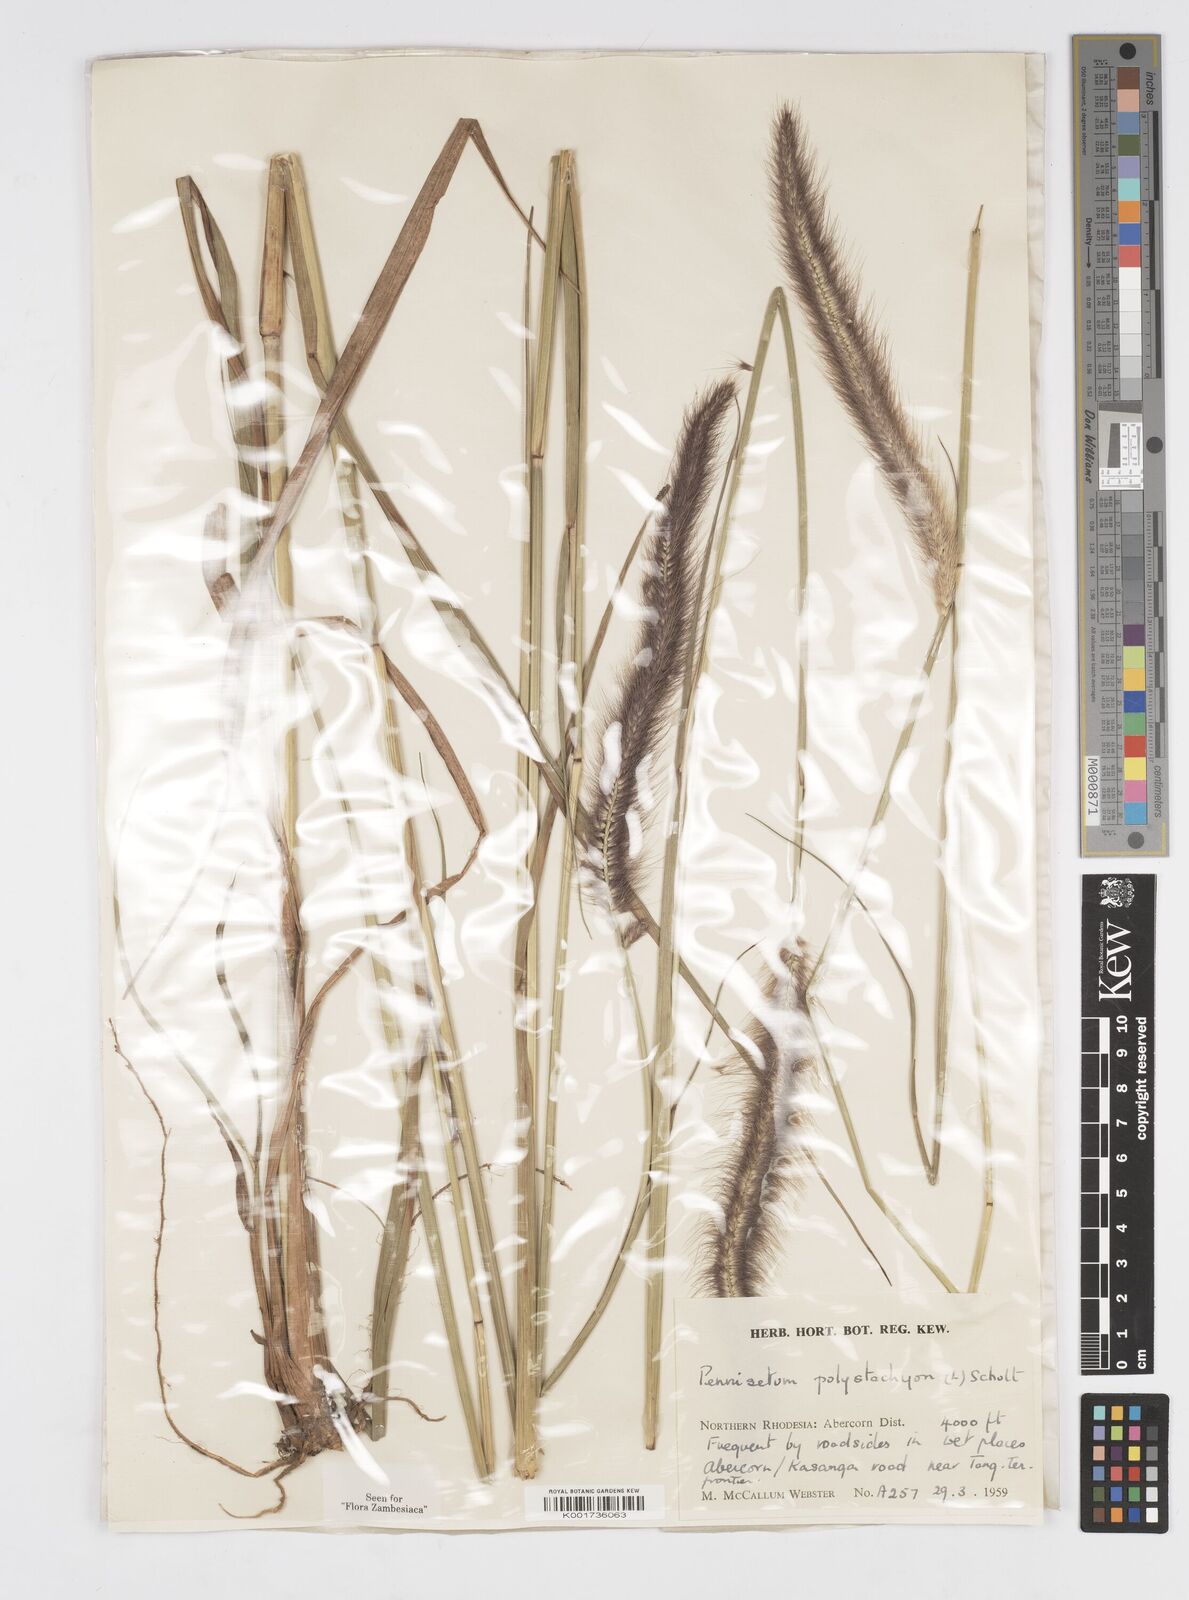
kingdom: Plantae
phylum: Tracheophyta
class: Liliopsida
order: Poales
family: Poaceae
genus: Setaria
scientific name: Setaria parviflora
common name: Knotroot bristle-grass
